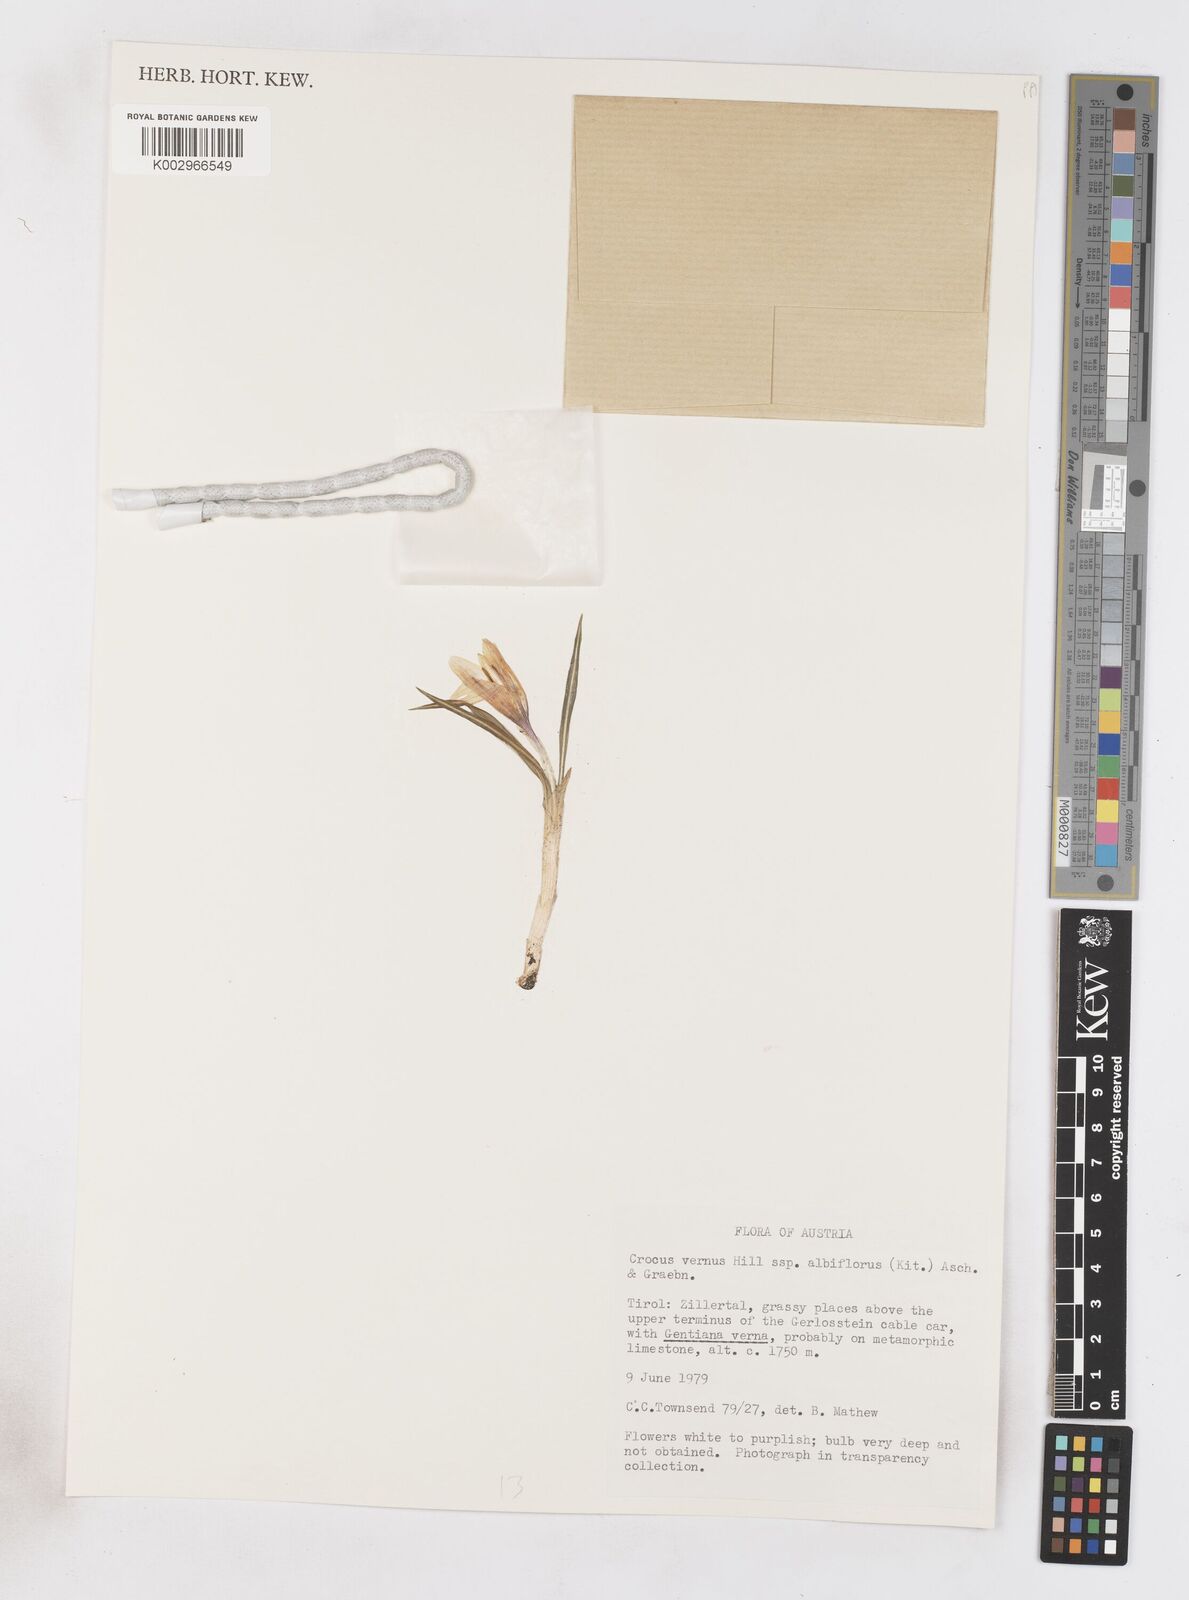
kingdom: Plantae
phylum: Tracheophyta
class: Liliopsida
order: Asparagales
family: Iridaceae
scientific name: Iridaceae
